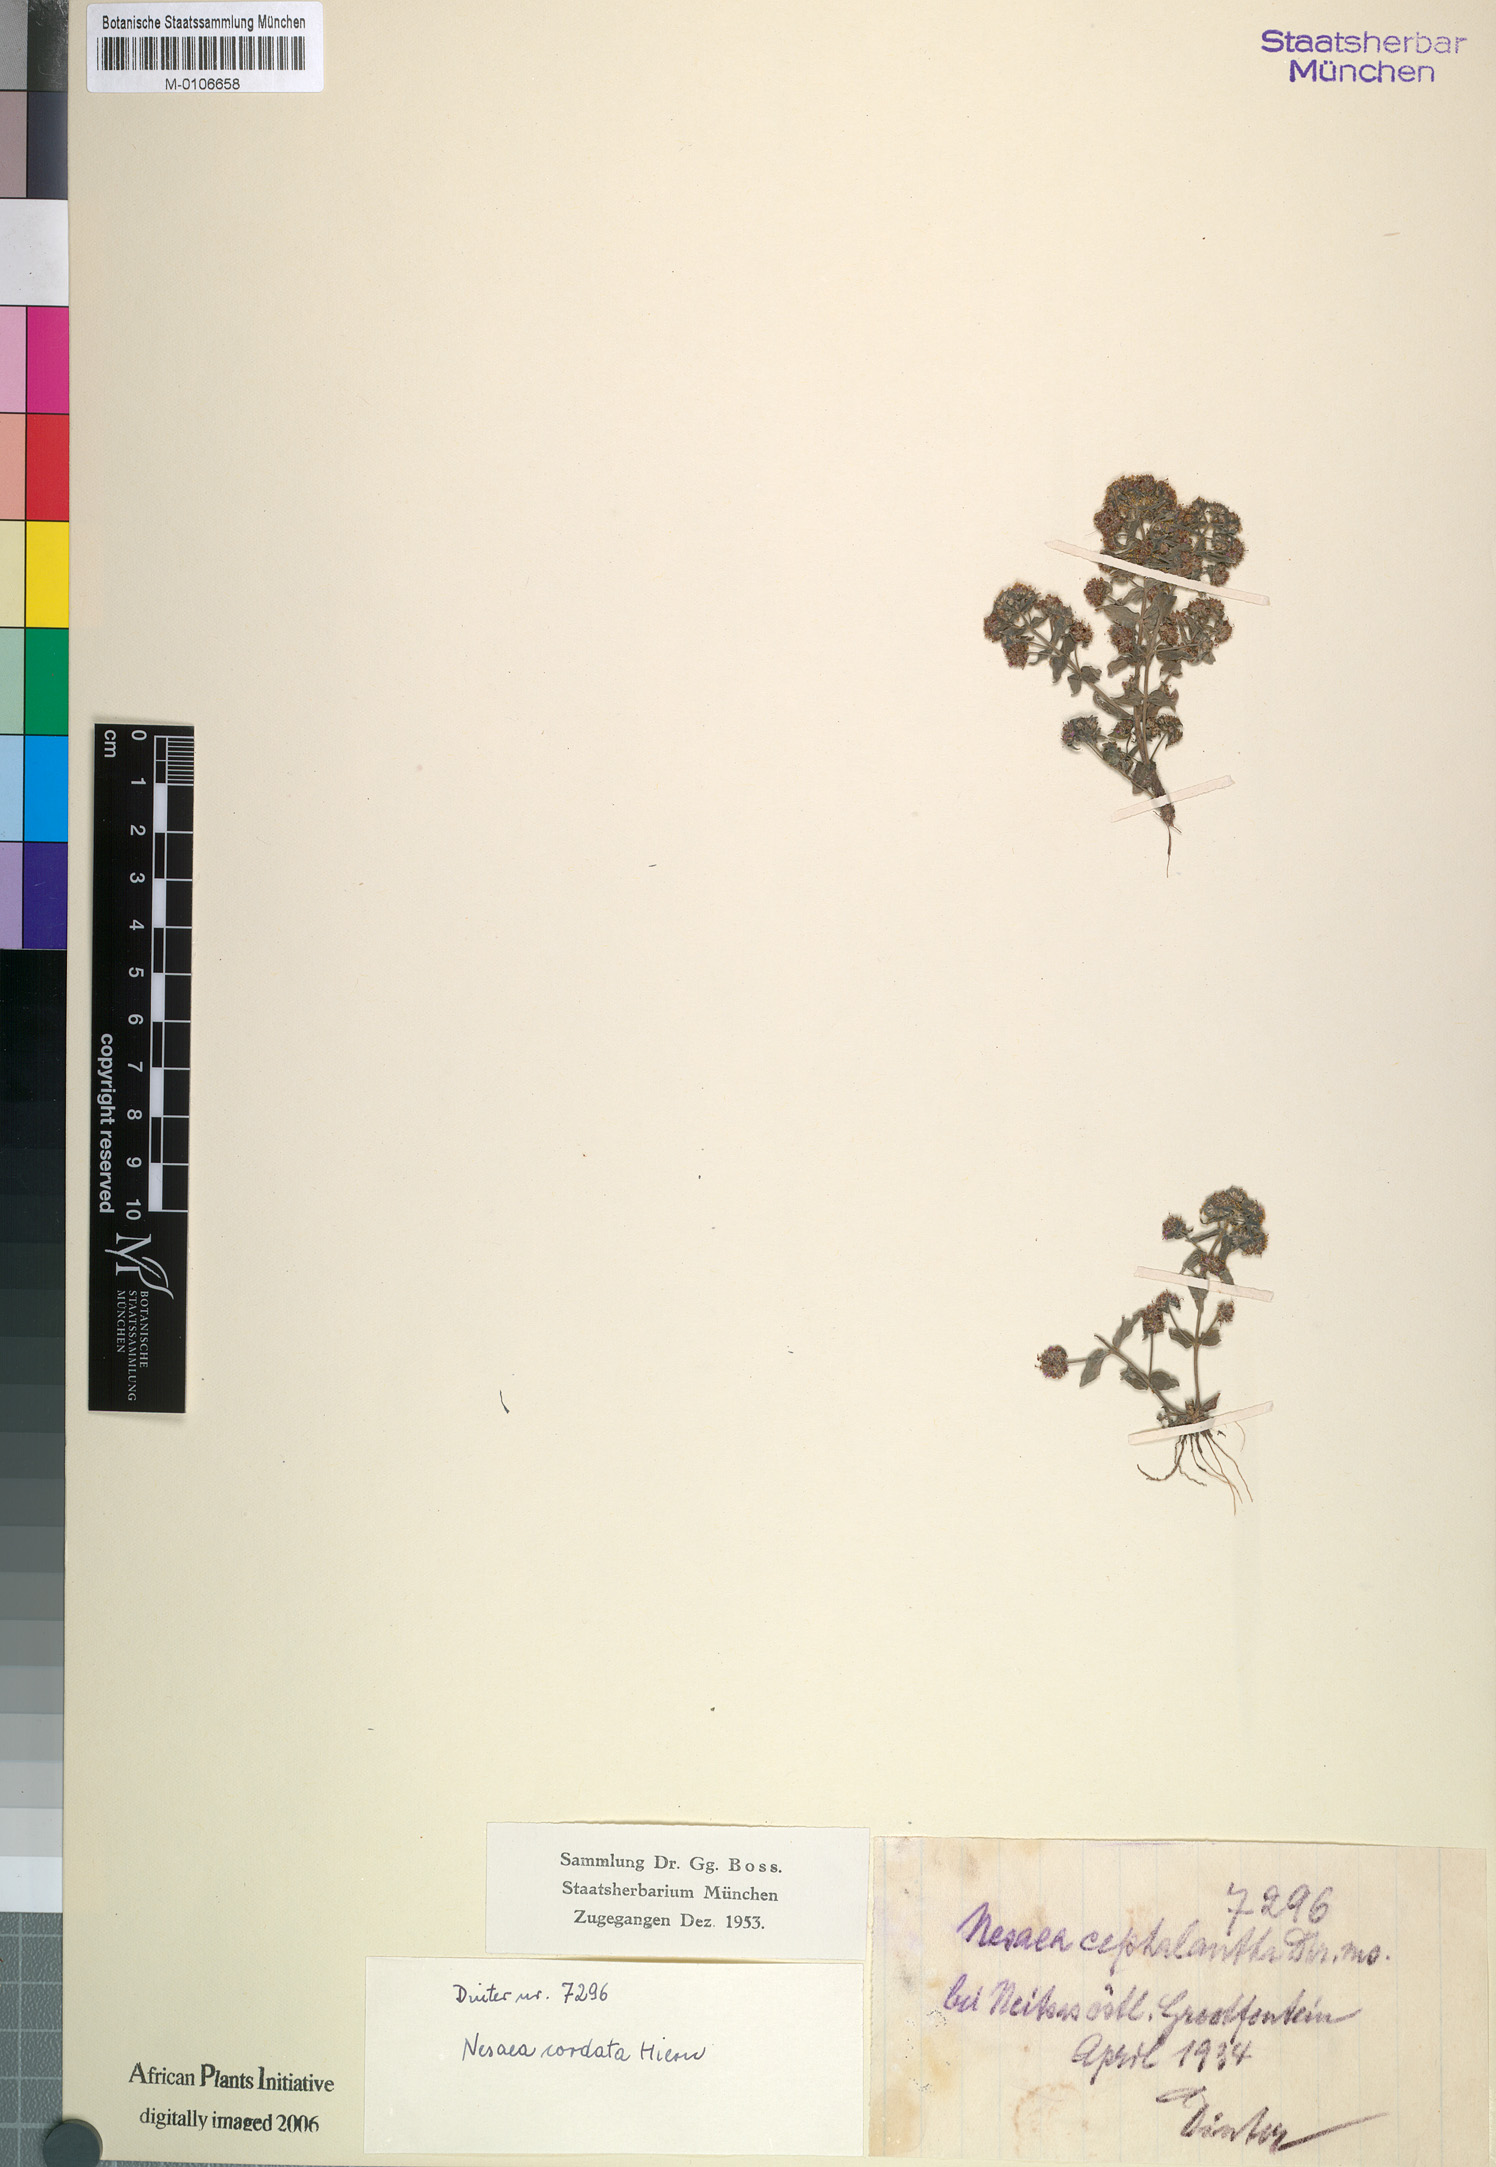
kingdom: Plantae
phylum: Tracheophyta
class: Magnoliopsida
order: Myrtales
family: Lythraceae
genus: Ammannia
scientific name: Ammannia involucrata
